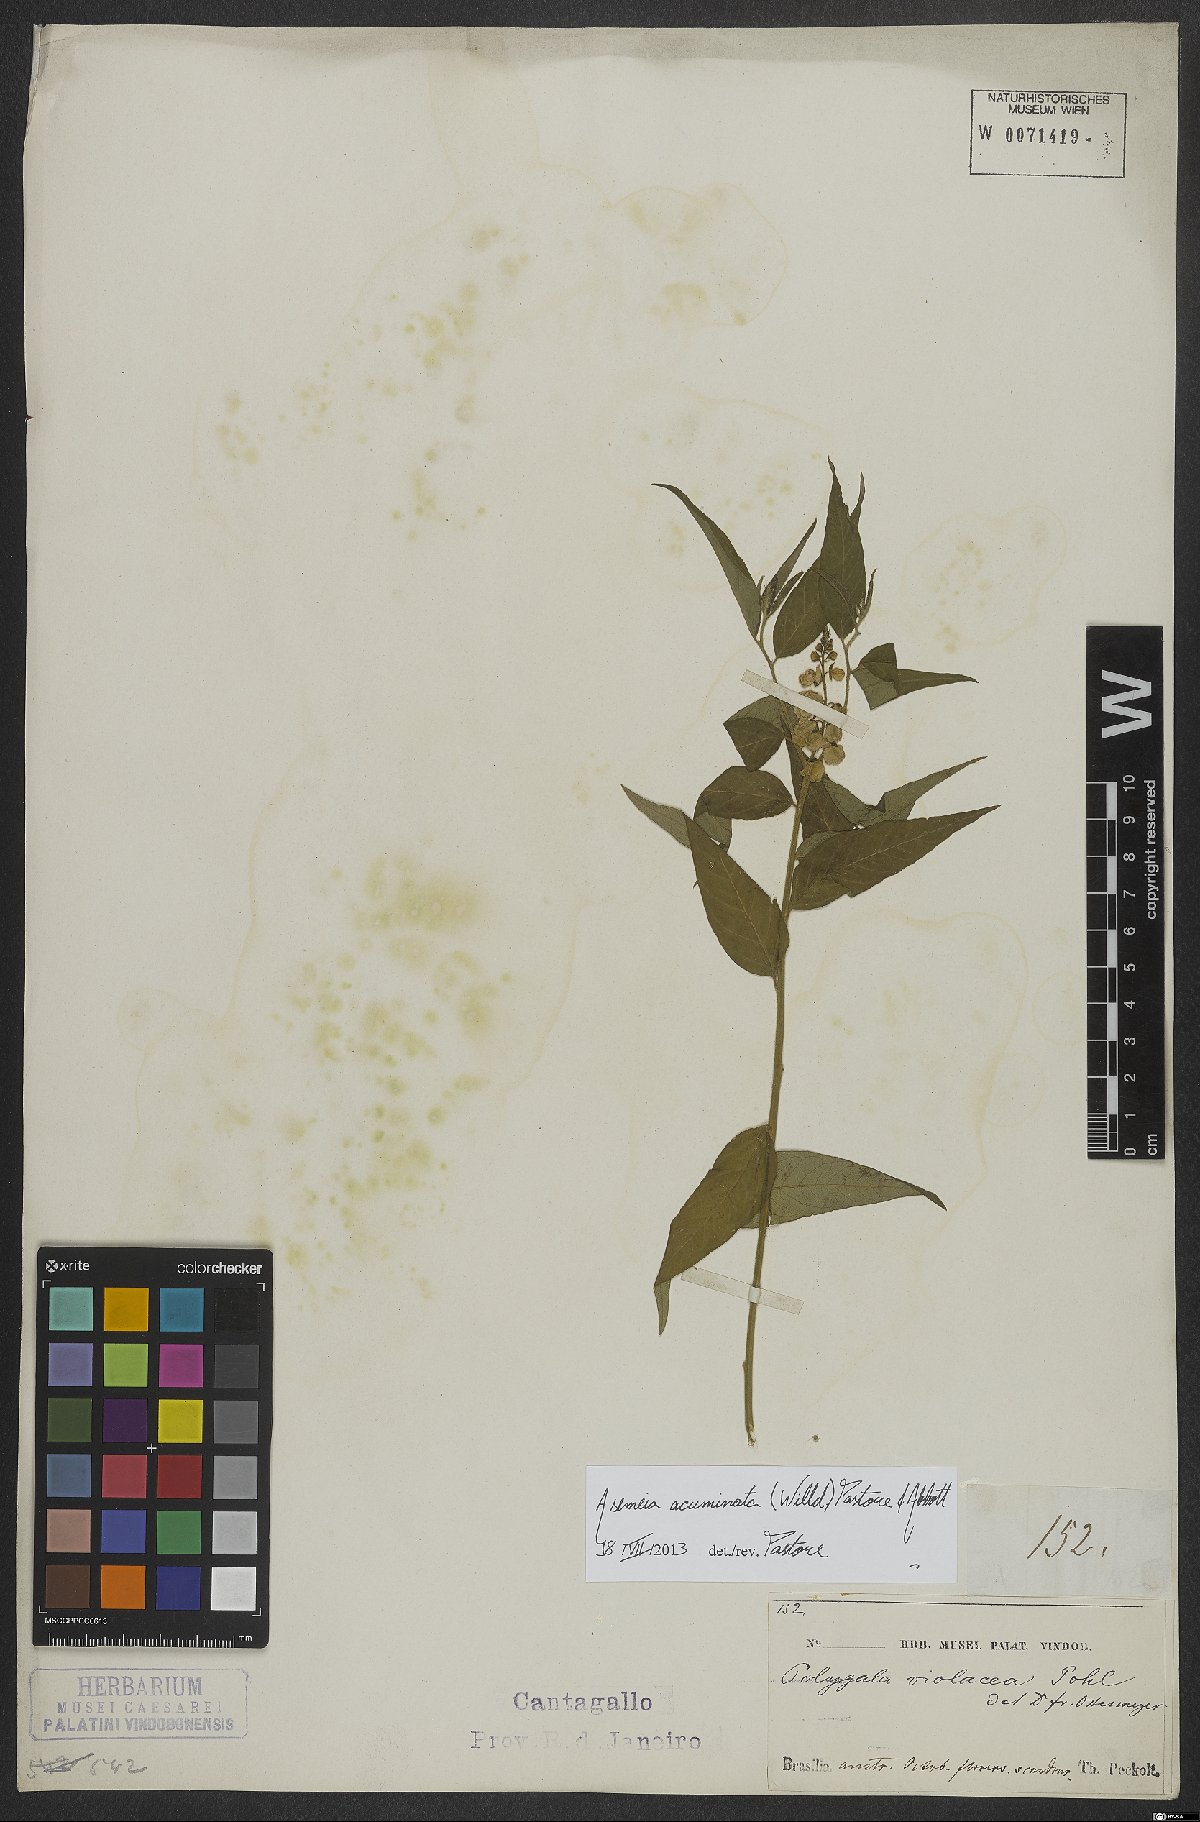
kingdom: Plantae
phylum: Tracheophyta
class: Magnoliopsida
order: Fabales
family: Polygalaceae
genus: Asemeia
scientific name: Asemeia acuminata
